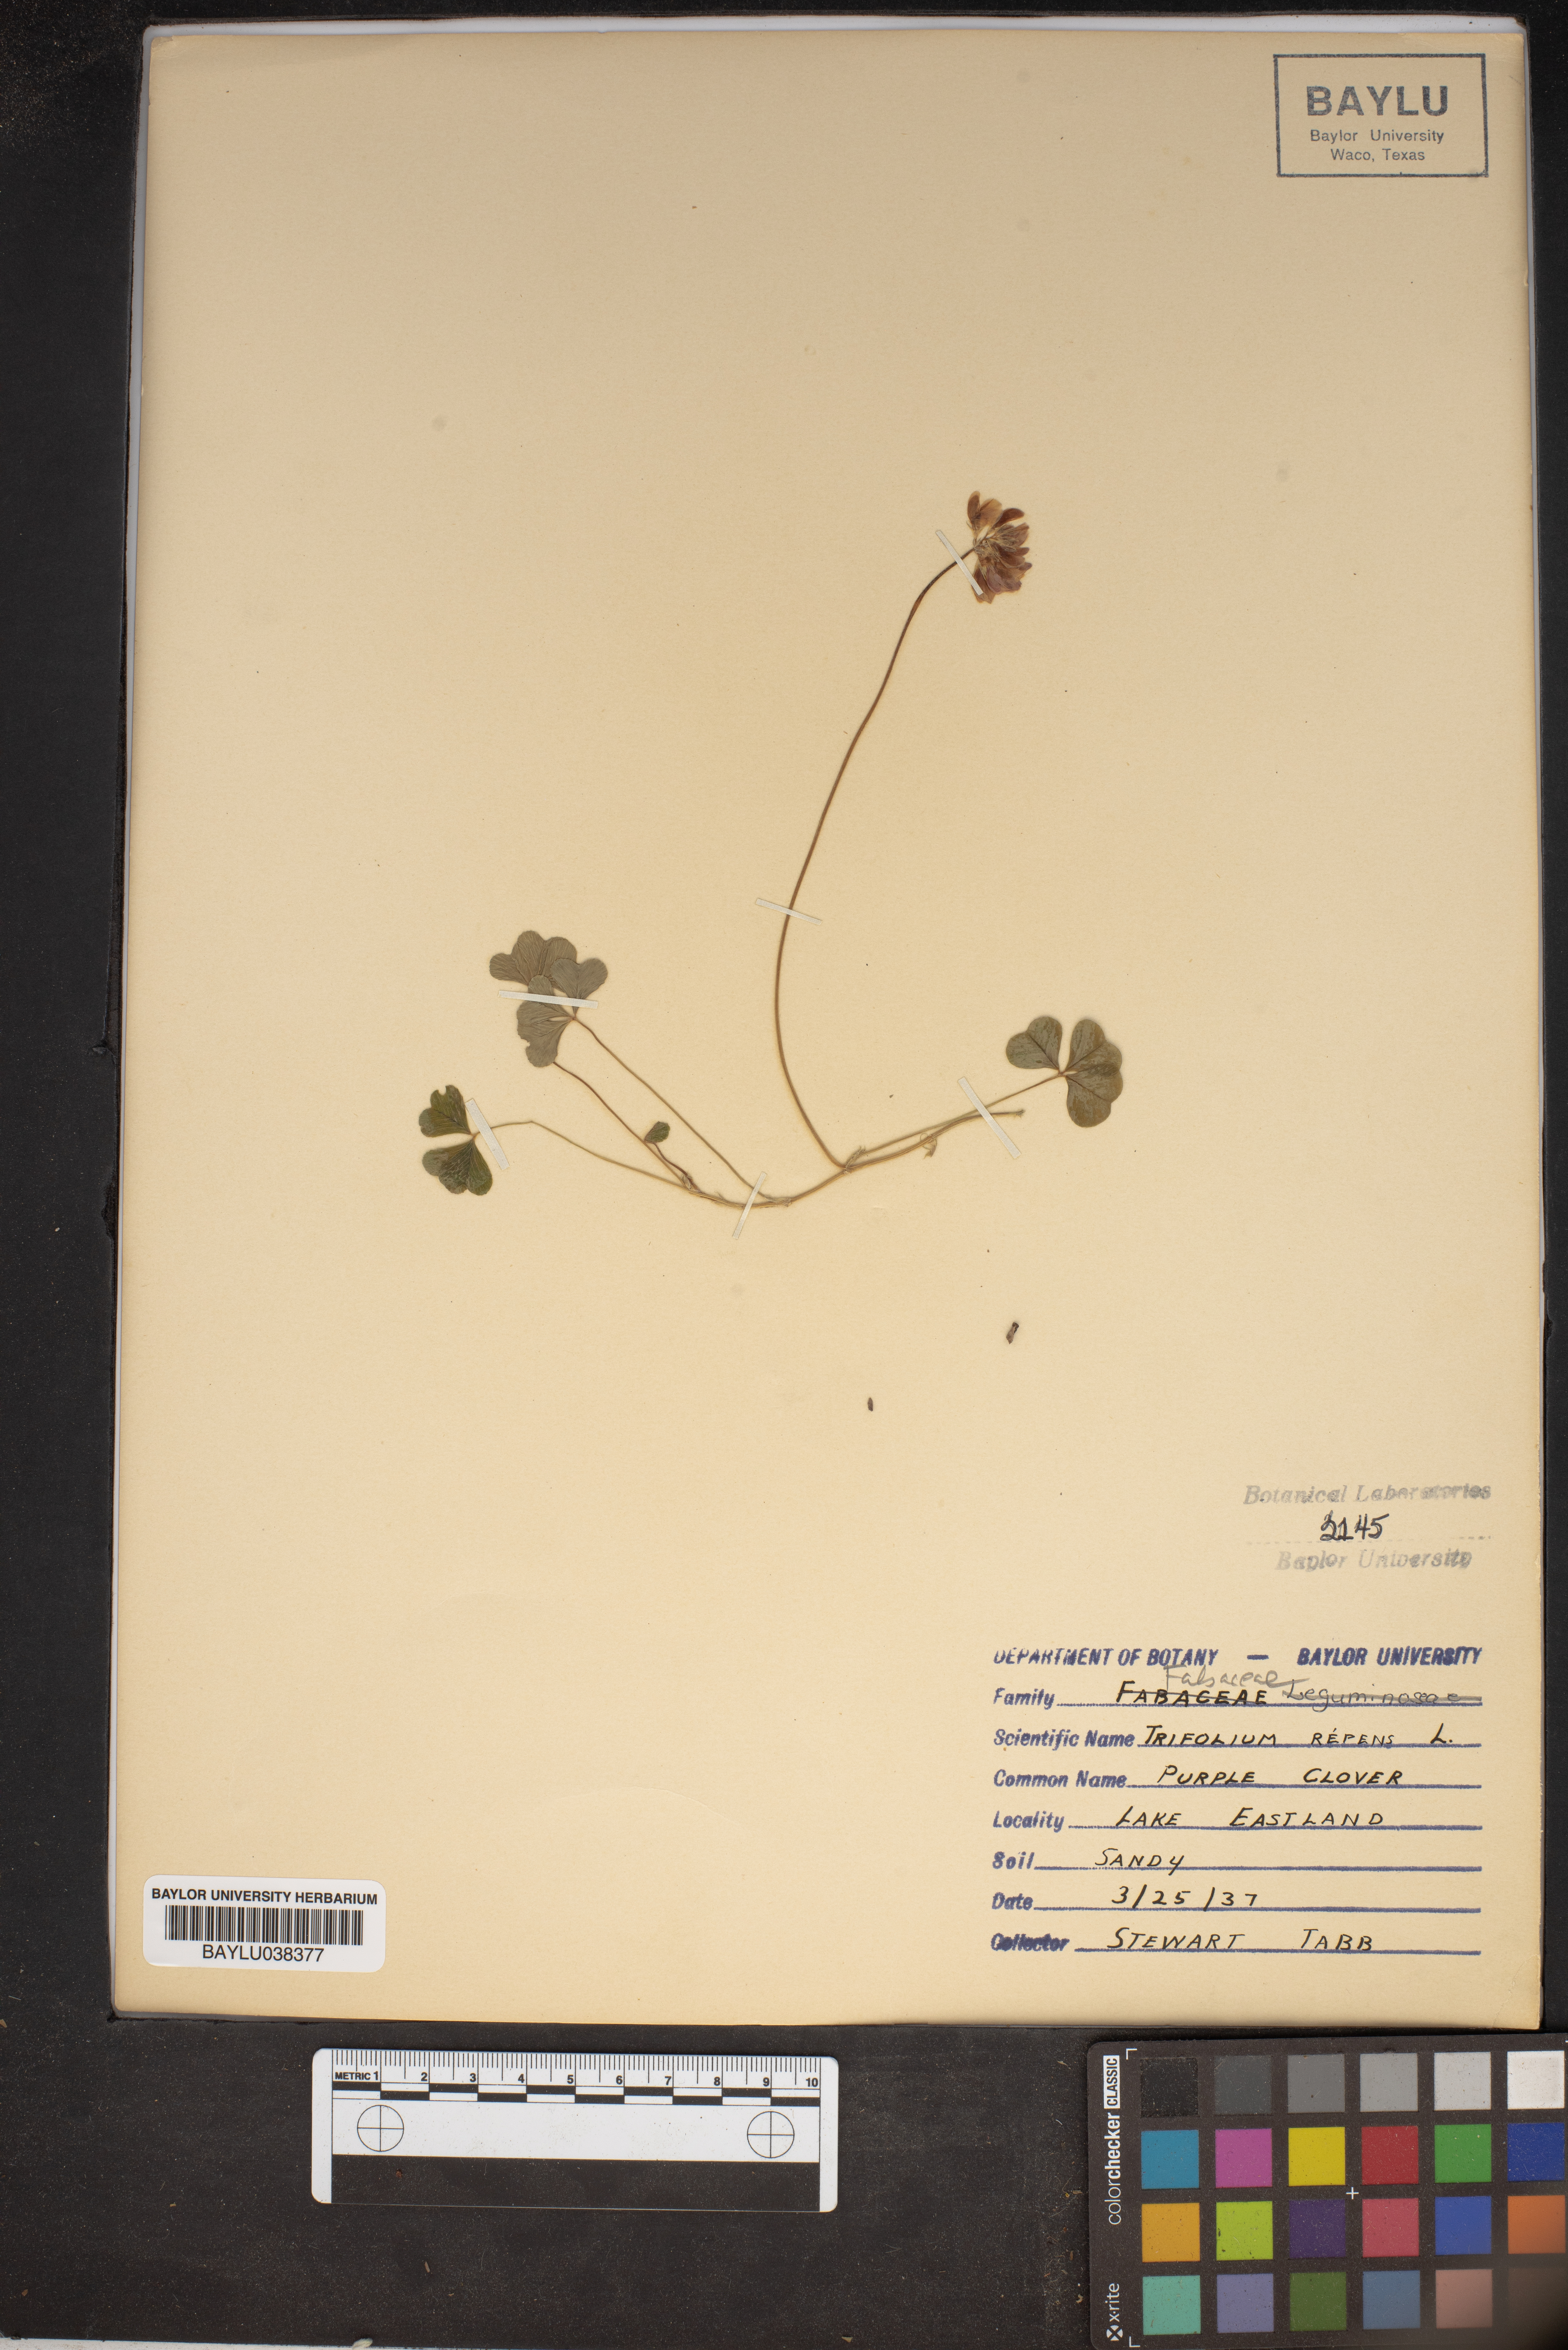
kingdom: Plantae
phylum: Tracheophyta
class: Magnoliopsida
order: Fabales
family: Fabaceae
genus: Trifolium
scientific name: Trifolium repens
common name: White clover
